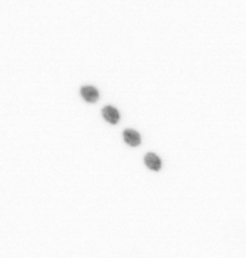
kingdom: Chromista
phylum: Ochrophyta
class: Bacillariophyceae
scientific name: Bacillariophyceae
